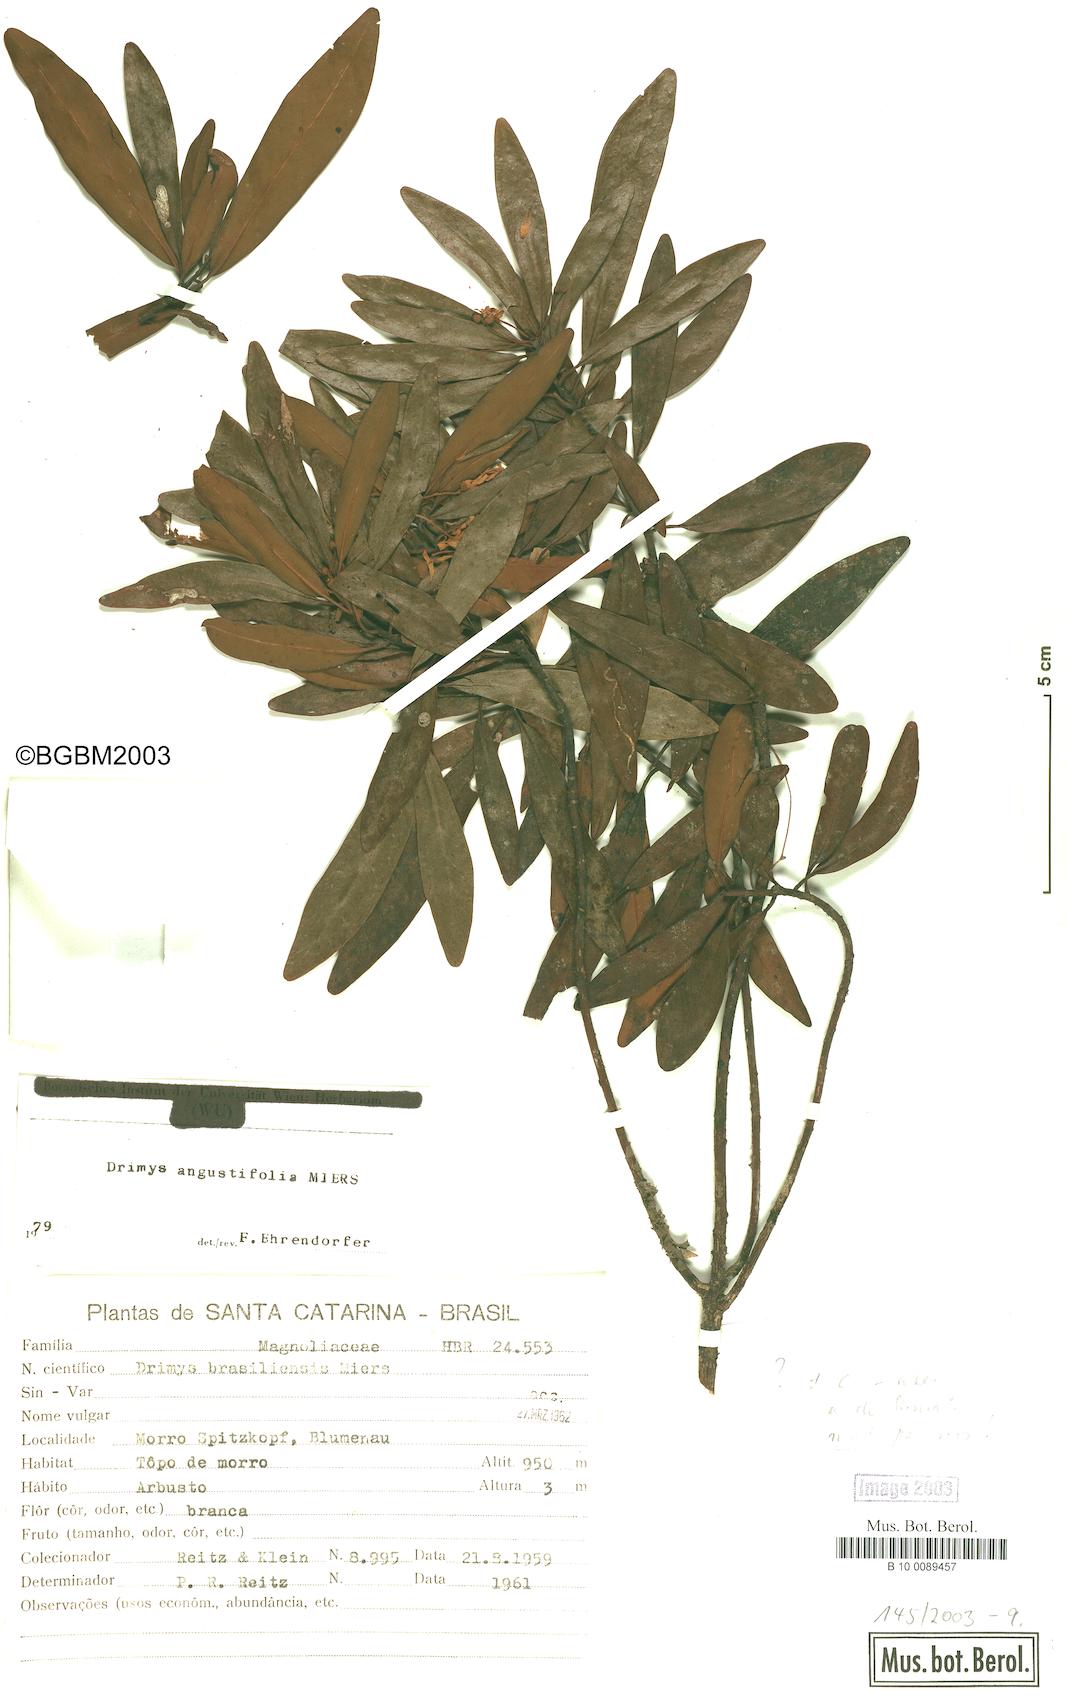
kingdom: Plantae
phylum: Tracheophyta
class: Magnoliopsida
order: Canellales
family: Winteraceae
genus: Drimys
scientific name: Drimys angustifolia
